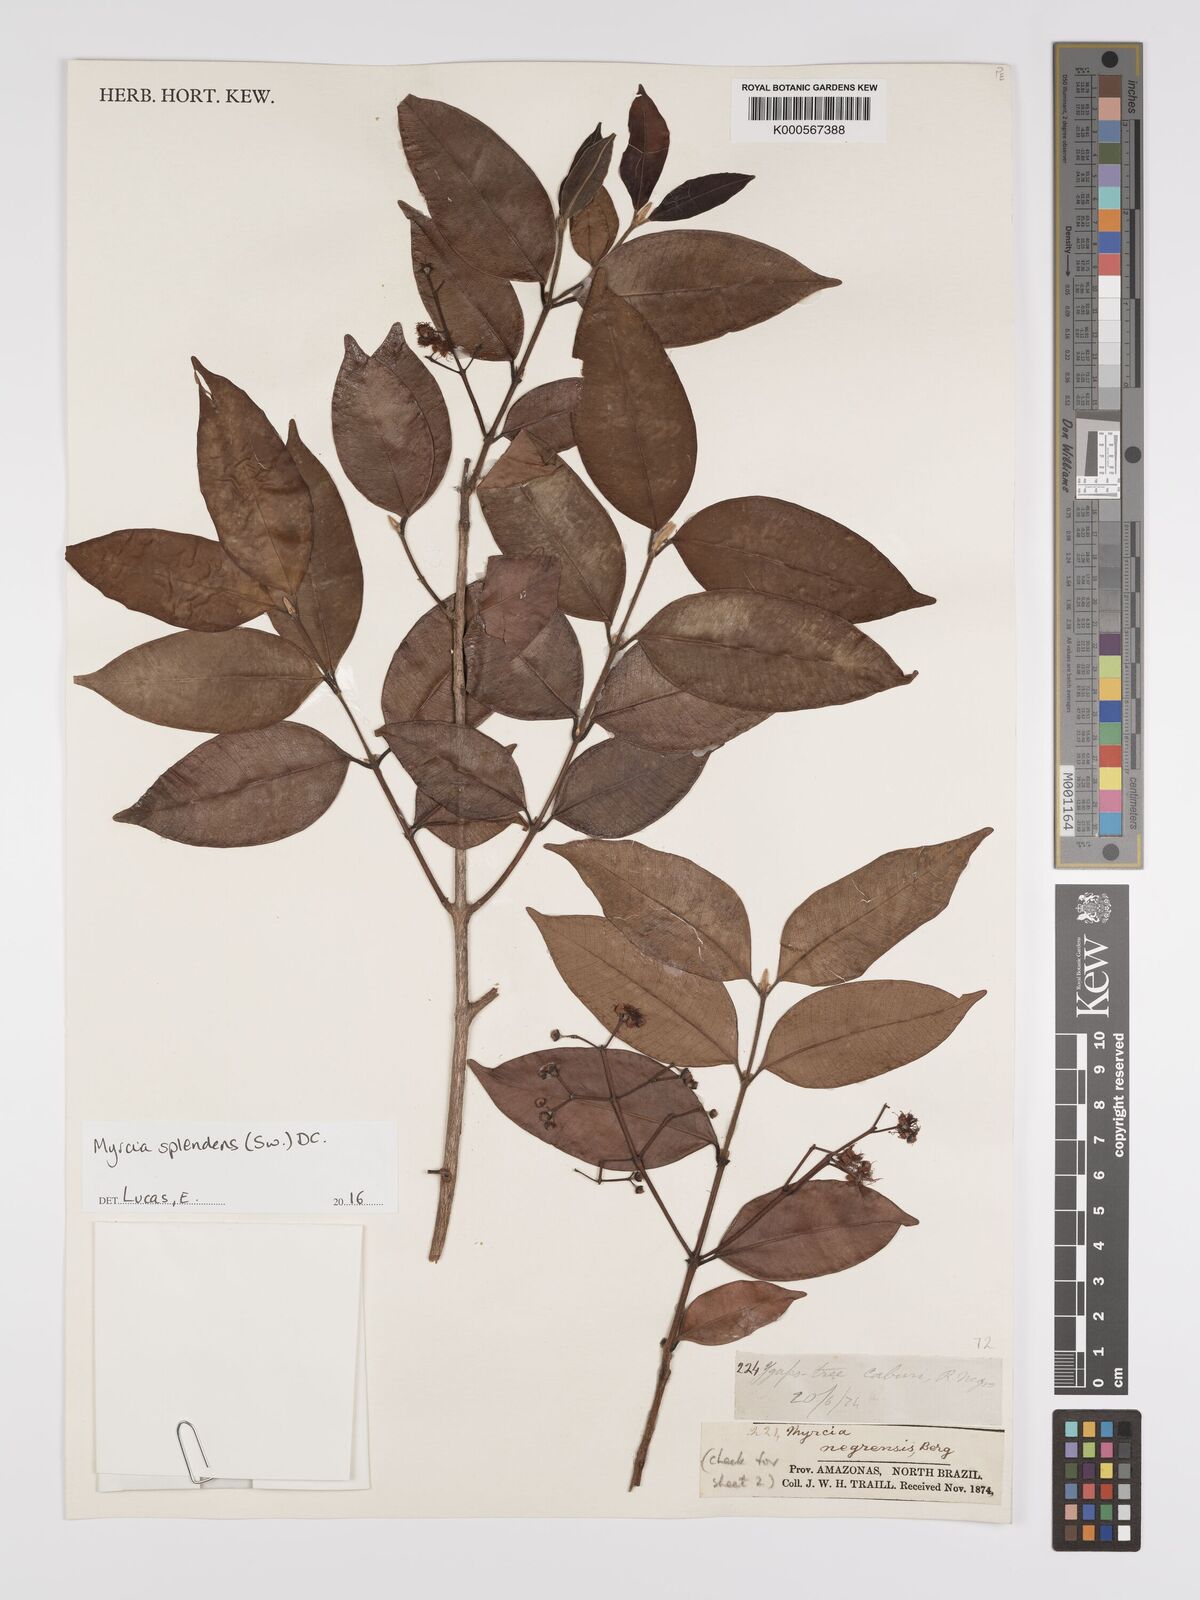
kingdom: Plantae
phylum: Tracheophyta
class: Magnoliopsida
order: Myrtales
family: Myrtaceae
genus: Myrcia
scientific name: Myrcia splendens
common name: Surinam cherry
